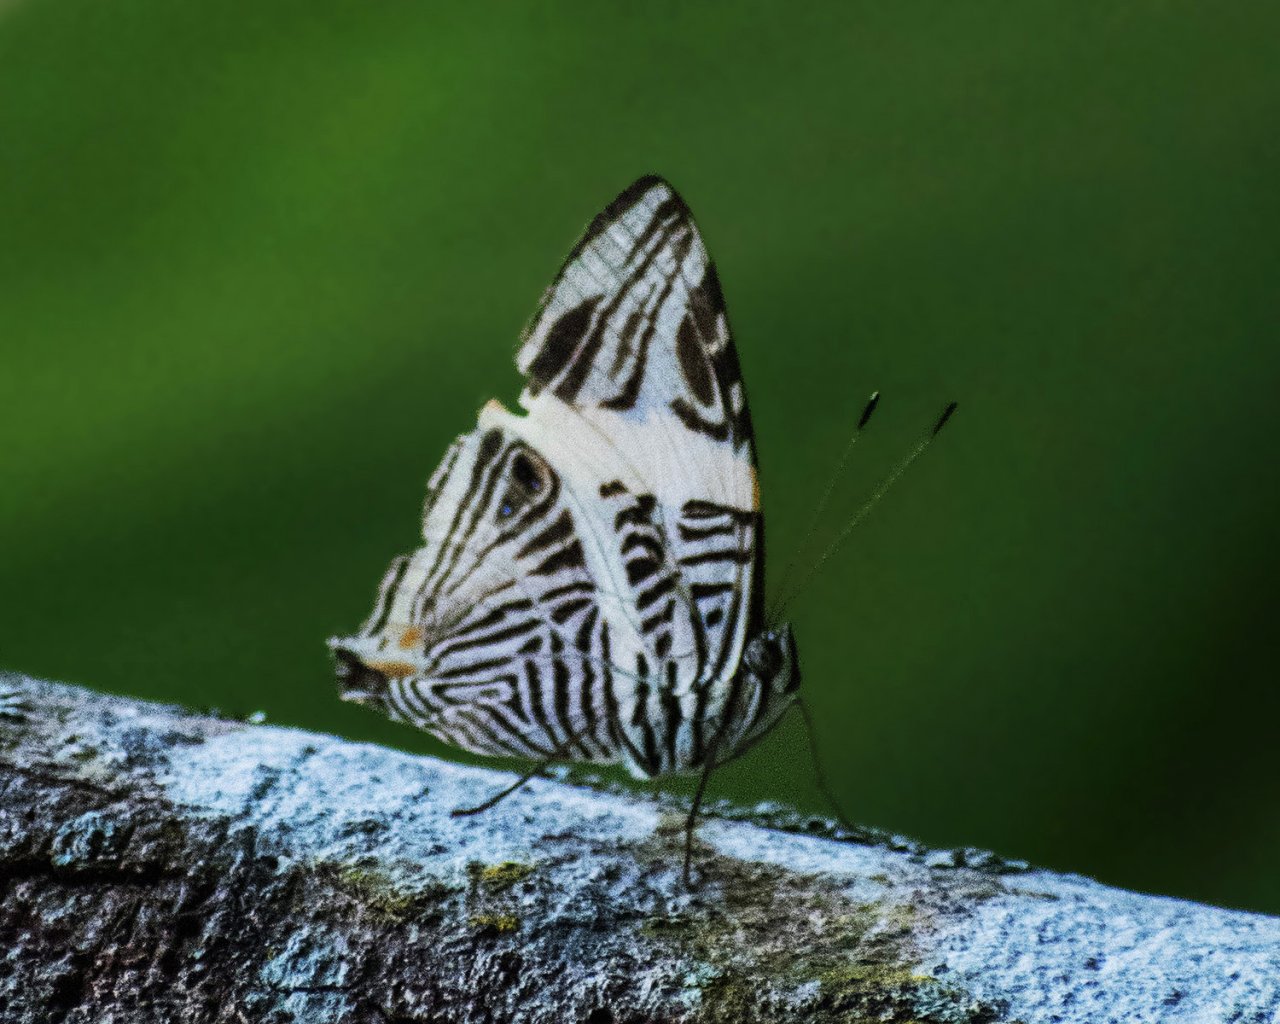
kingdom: Animalia
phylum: Arthropoda
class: Insecta
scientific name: Insecta
